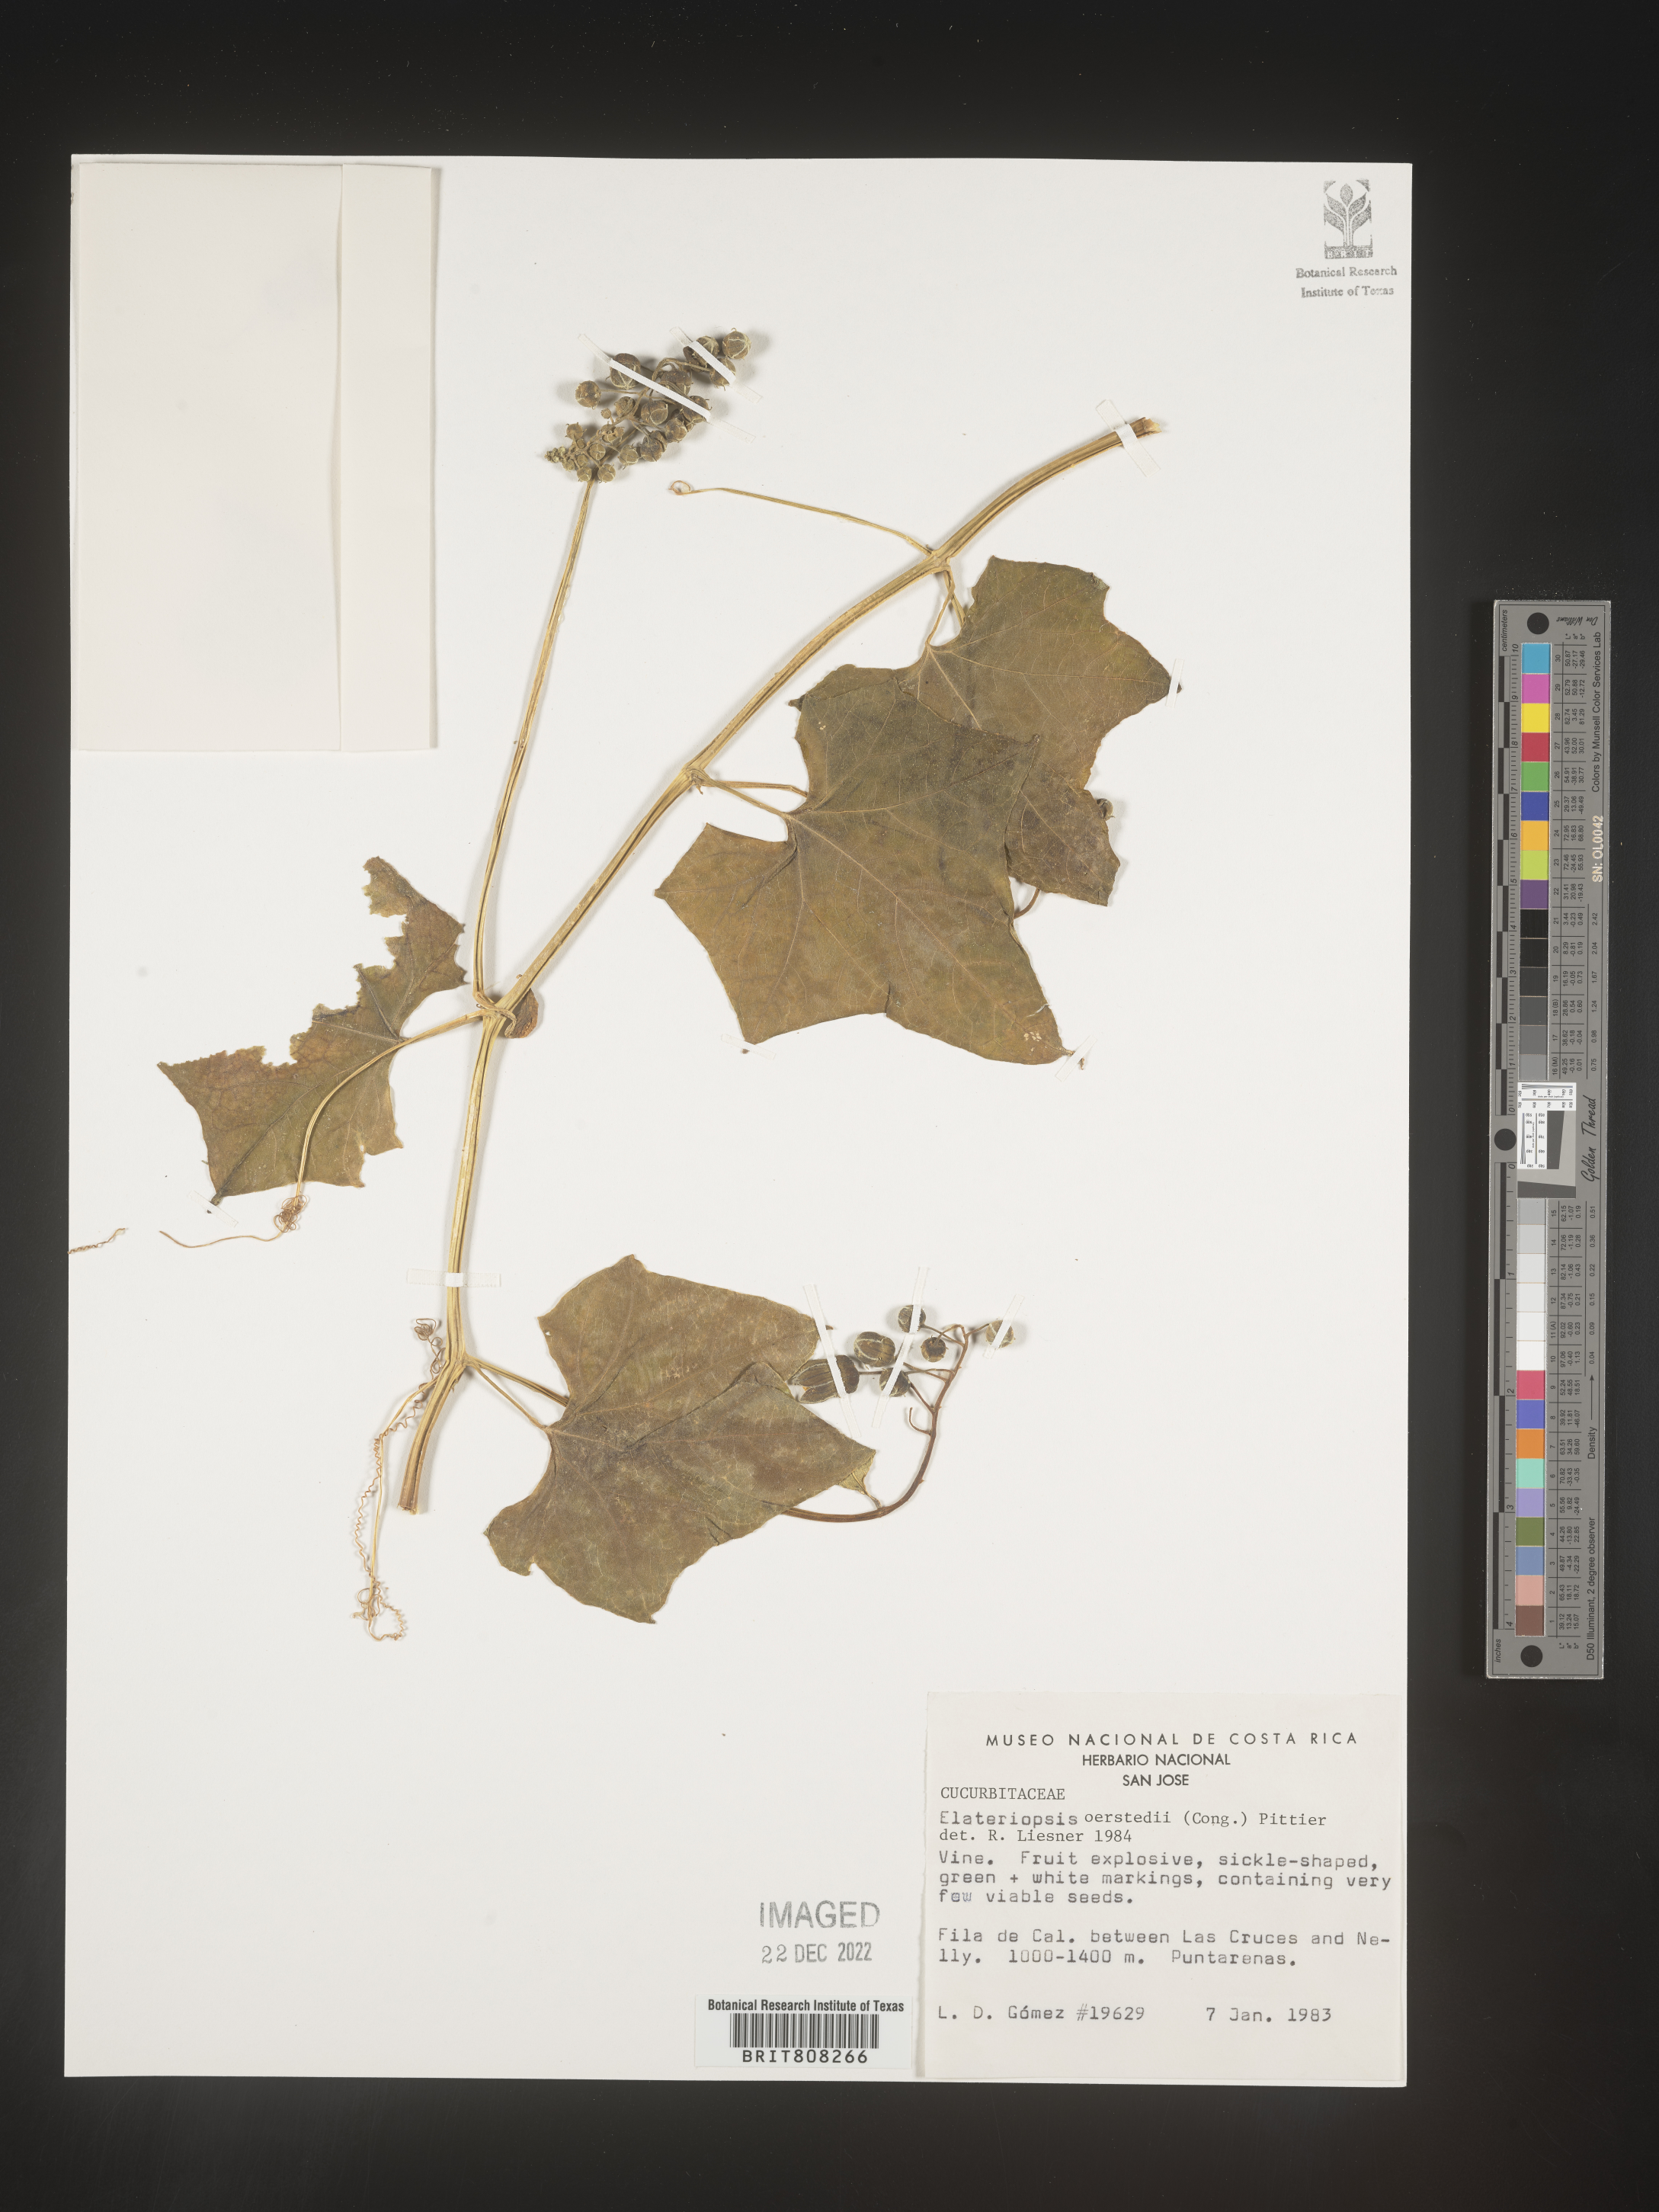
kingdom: Plantae
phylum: Tracheophyta
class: Magnoliopsida
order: Cucurbitales
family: Cucurbitaceae
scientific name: Cucurbitaceae
